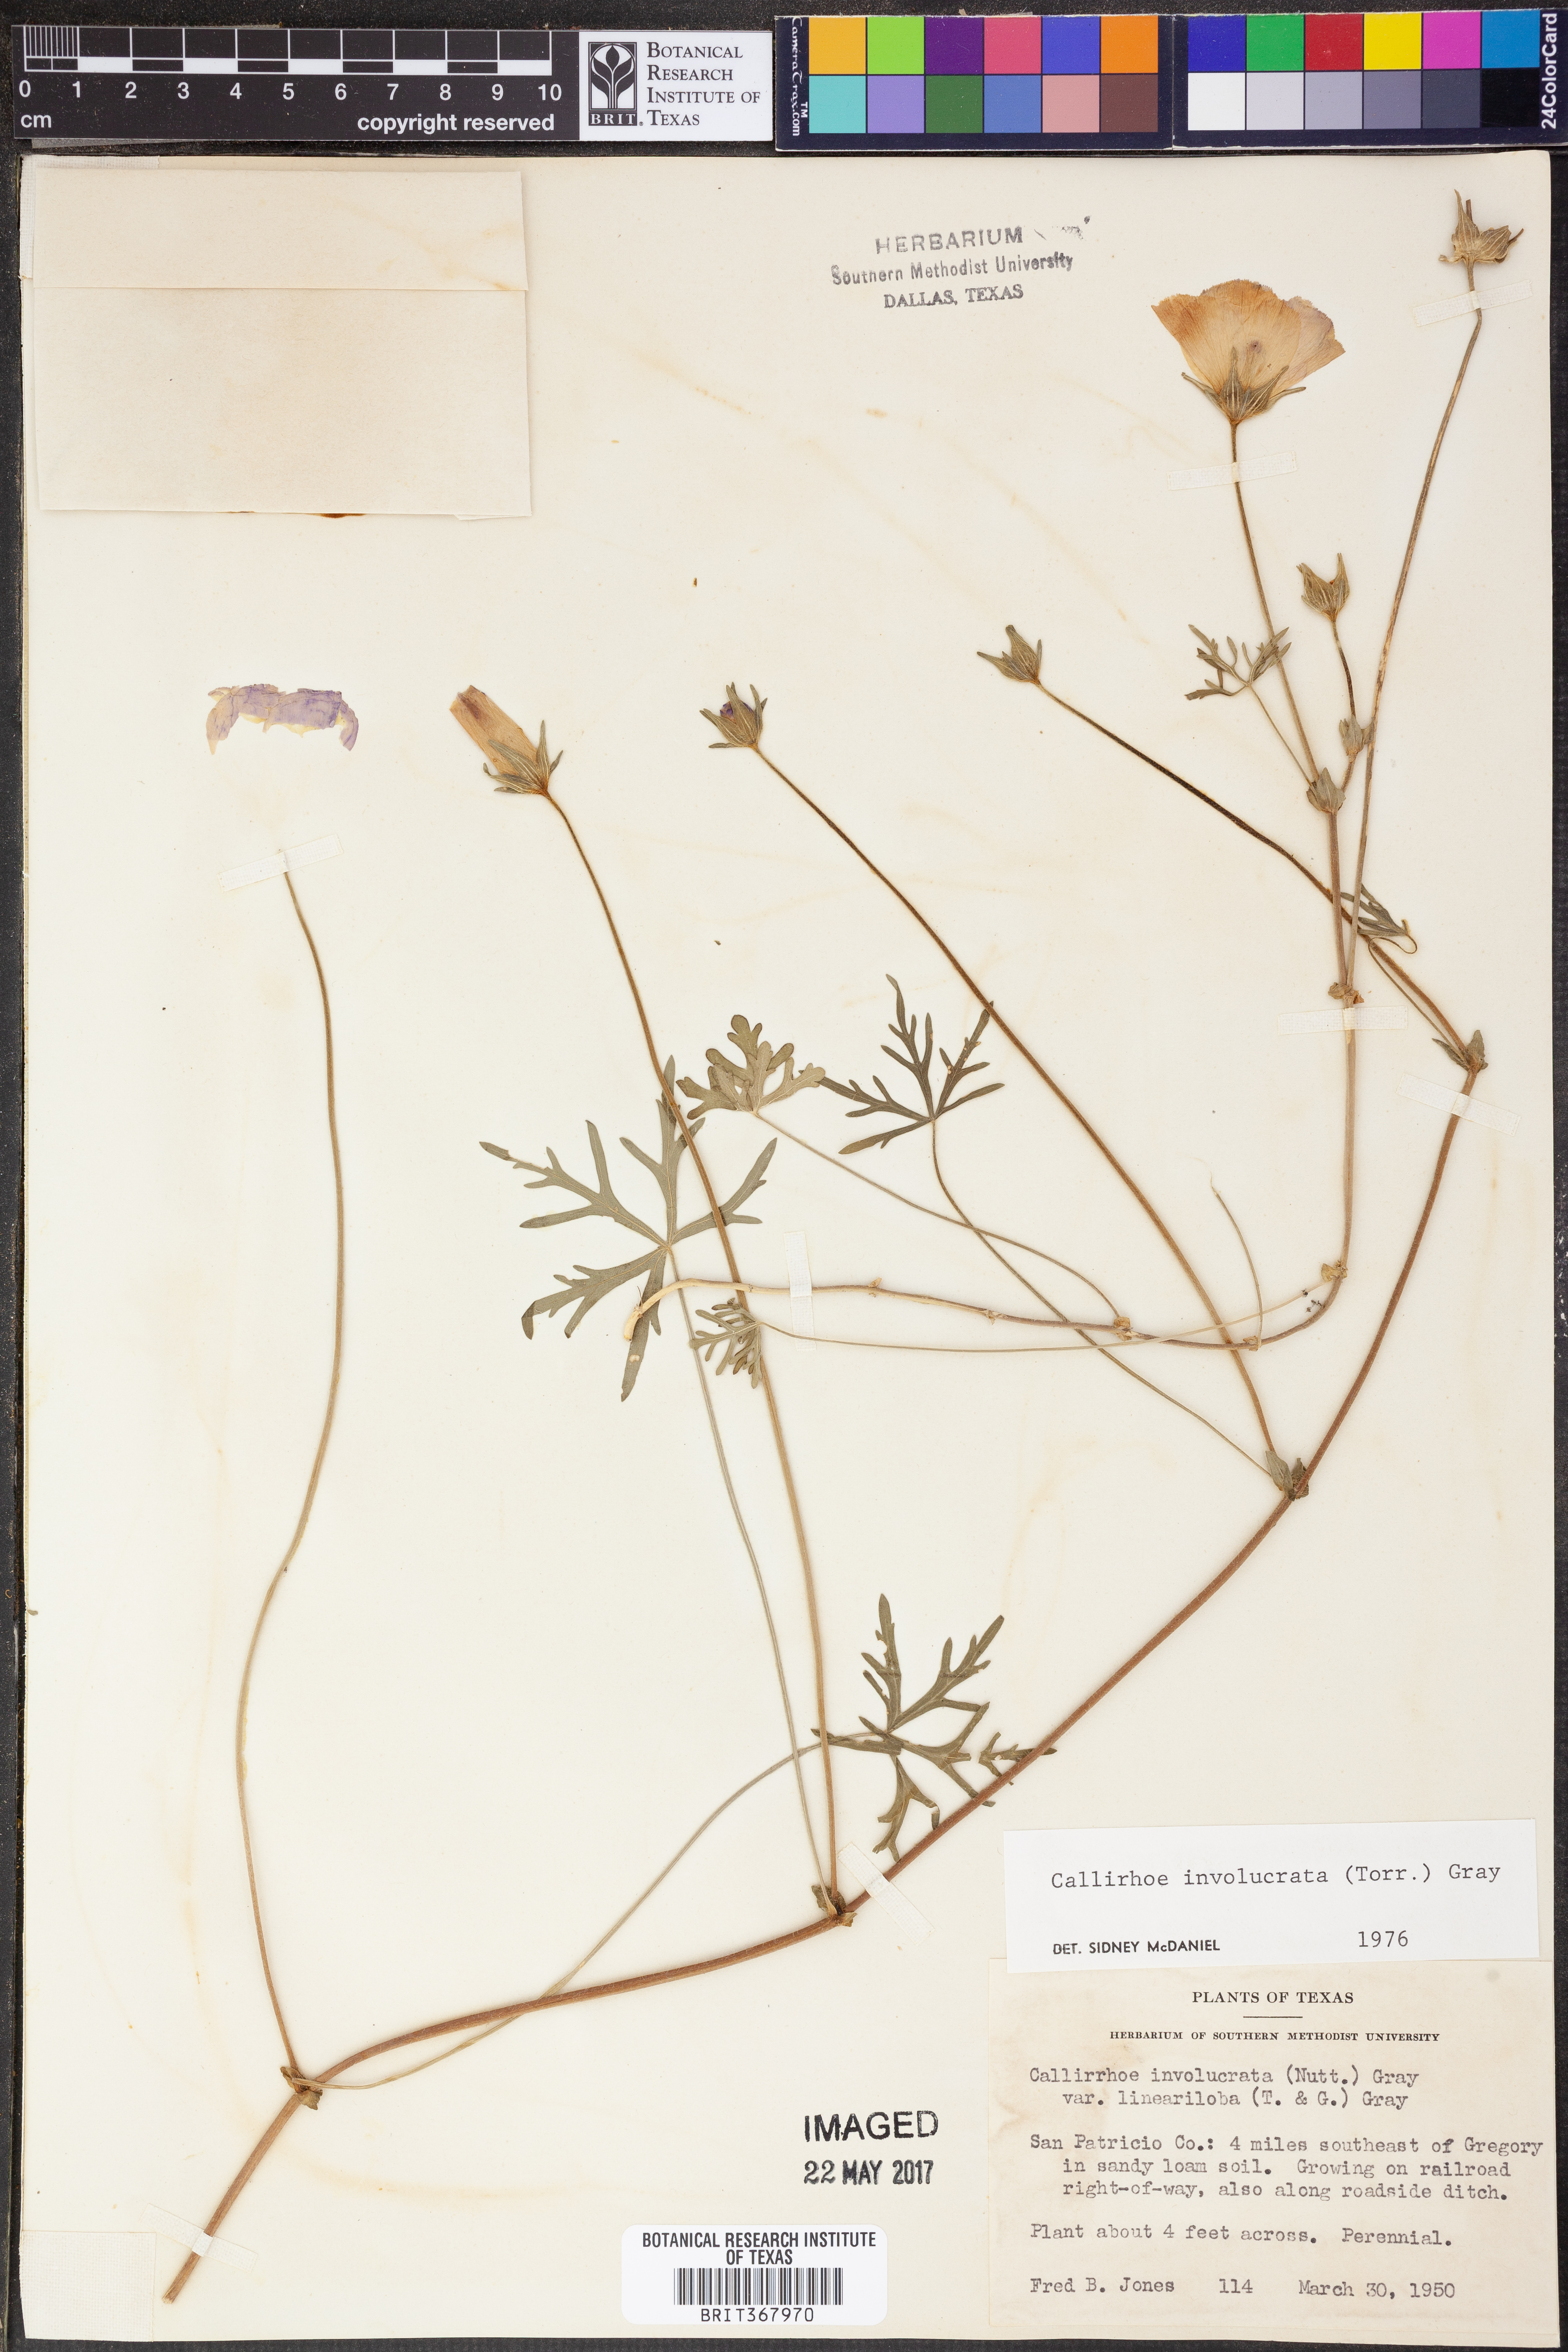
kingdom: Plantae
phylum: Tracheophyta
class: Magnoliopsida
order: Malvales
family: Malvaceae
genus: Callirhoe
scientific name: Callirhoe involucrata
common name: Purple poppy-mallow
